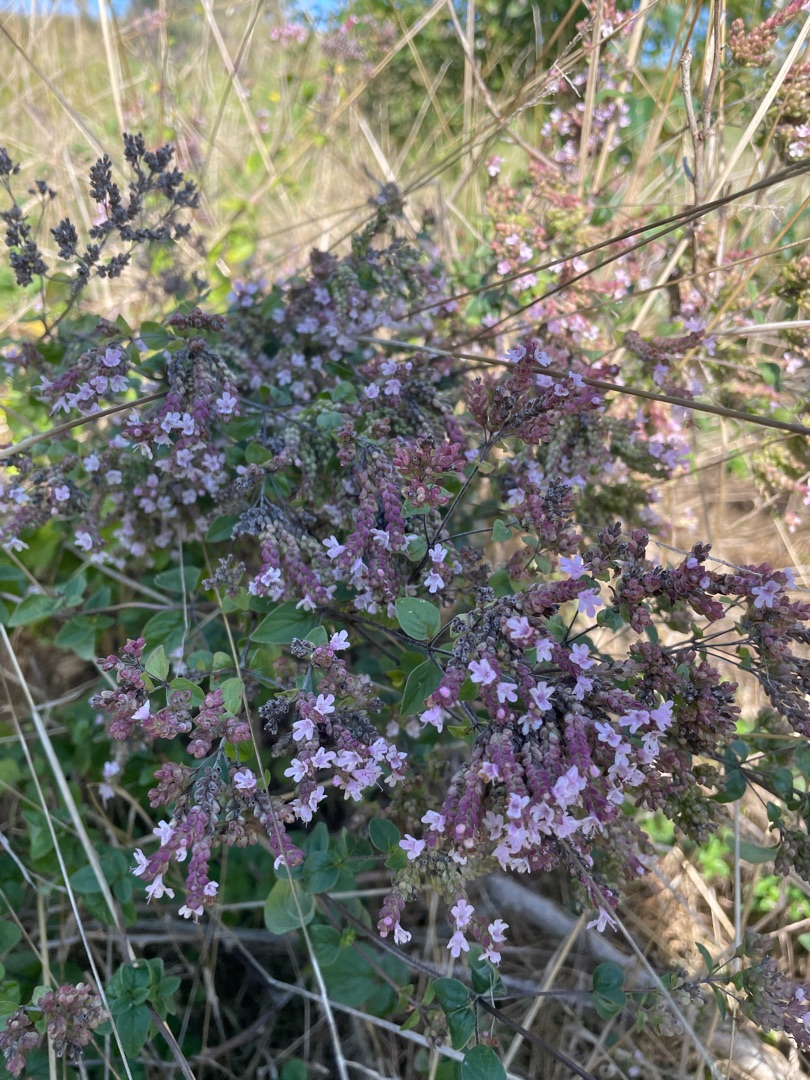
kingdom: Plantae
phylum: Tracheophyta
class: Magnoliopsida
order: Lamiales
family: Lamiaceae
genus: Origanum
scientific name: Origanum vulgare
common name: Merian
